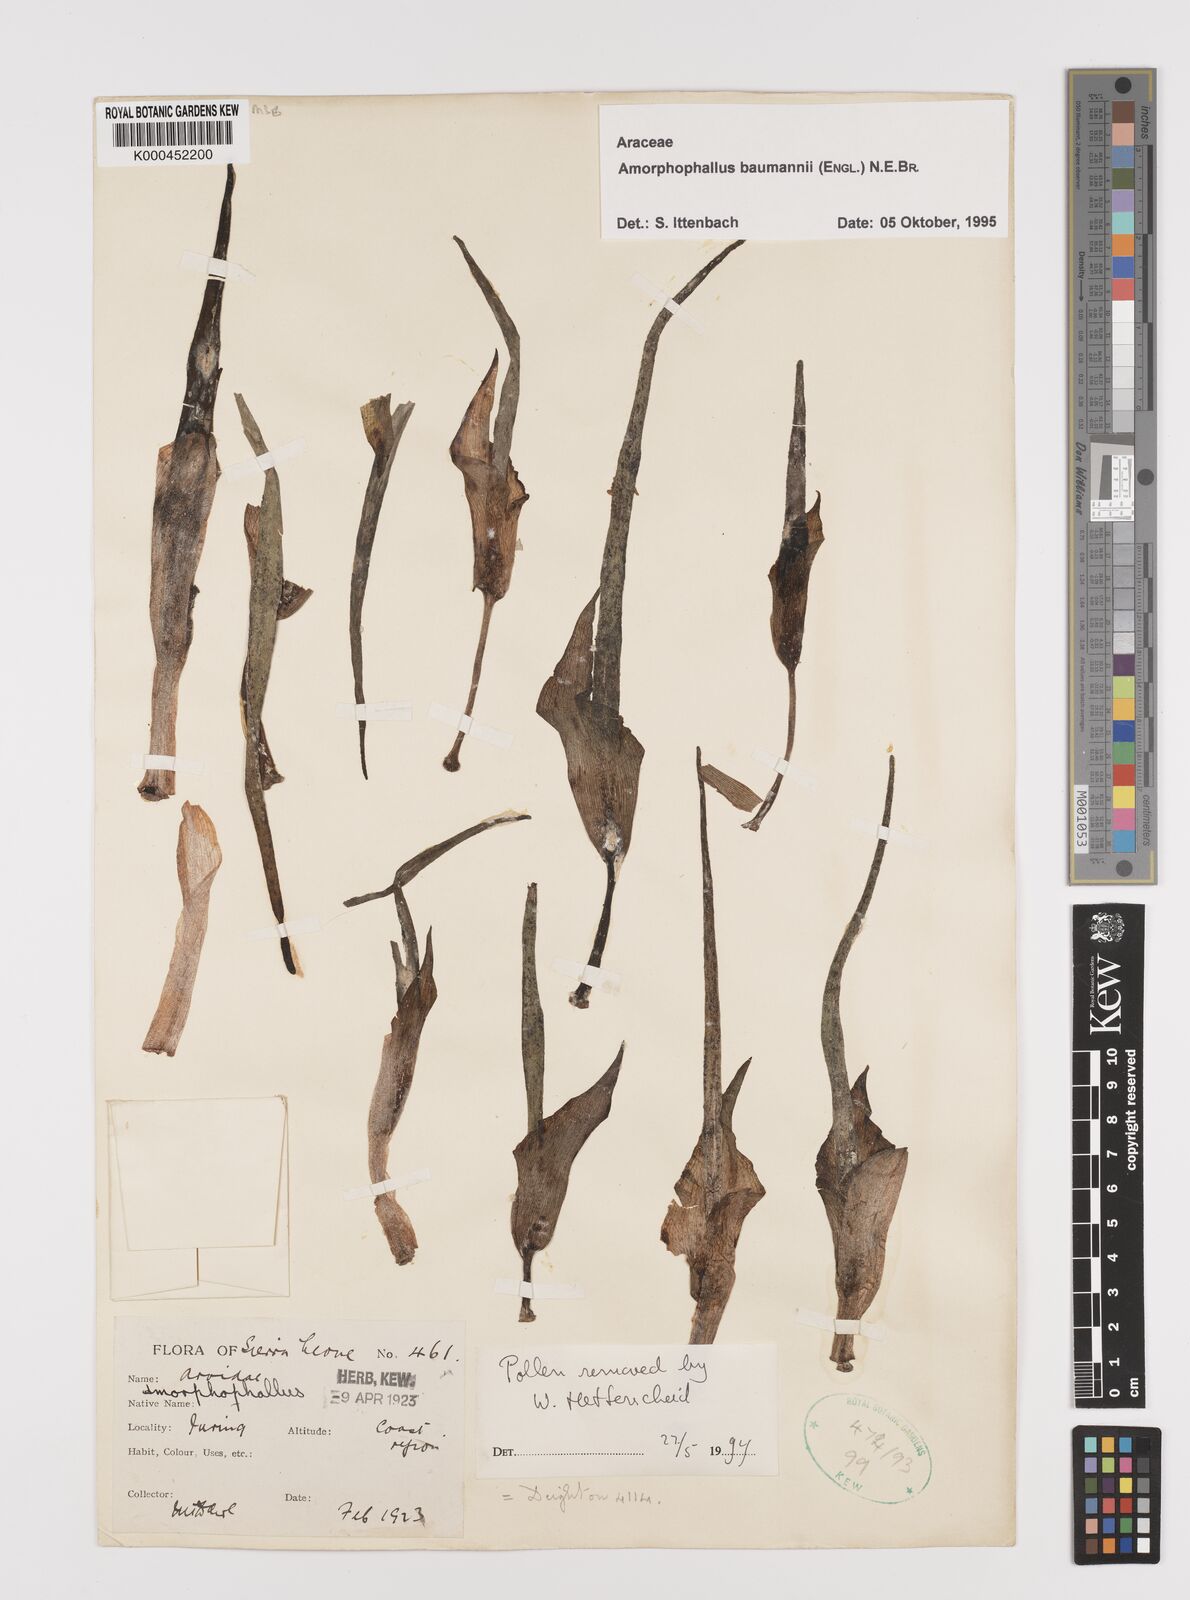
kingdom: Plantae
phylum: Tracheophyta
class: Liliopsida
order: Alismatales
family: Araceae
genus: Amorphophallus
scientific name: Amorphophallus baumannii
